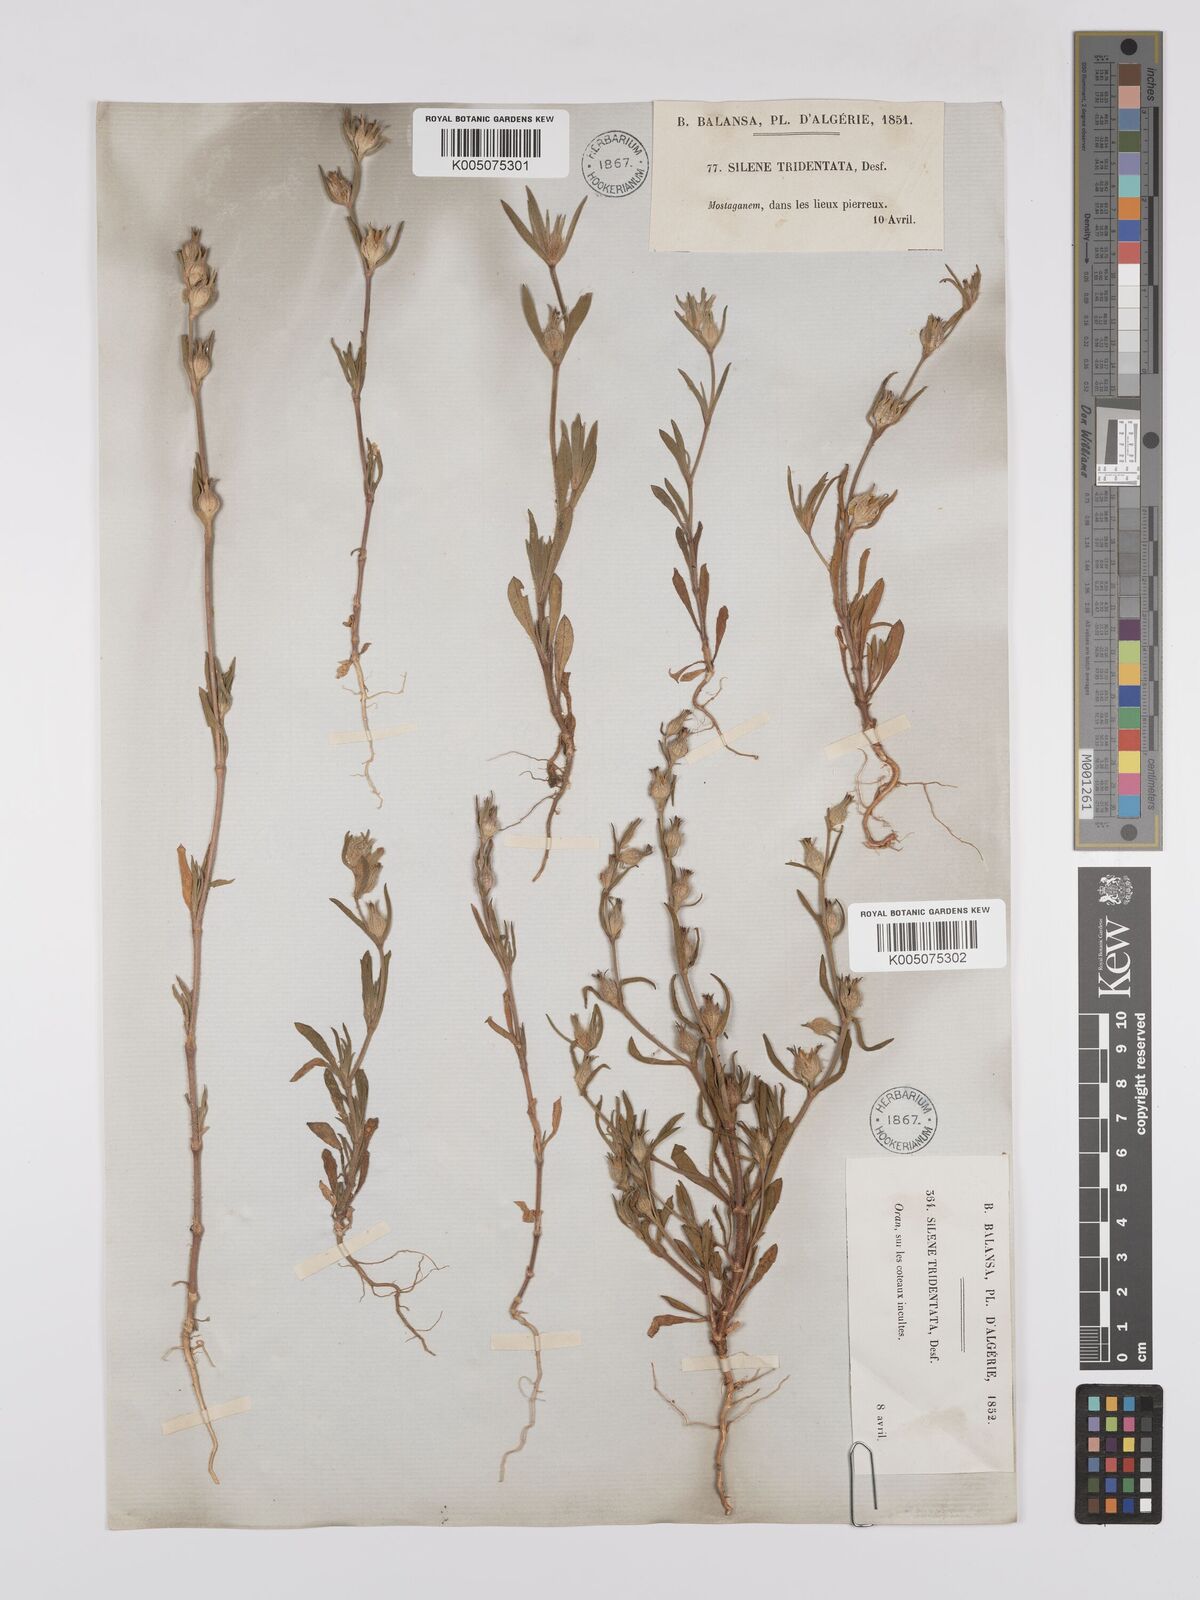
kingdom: Plantae
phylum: Tracheophyta
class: Magnoliopsida
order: Caryophyllales
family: Caryophyllaceae
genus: Silene
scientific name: Silene tridentata
